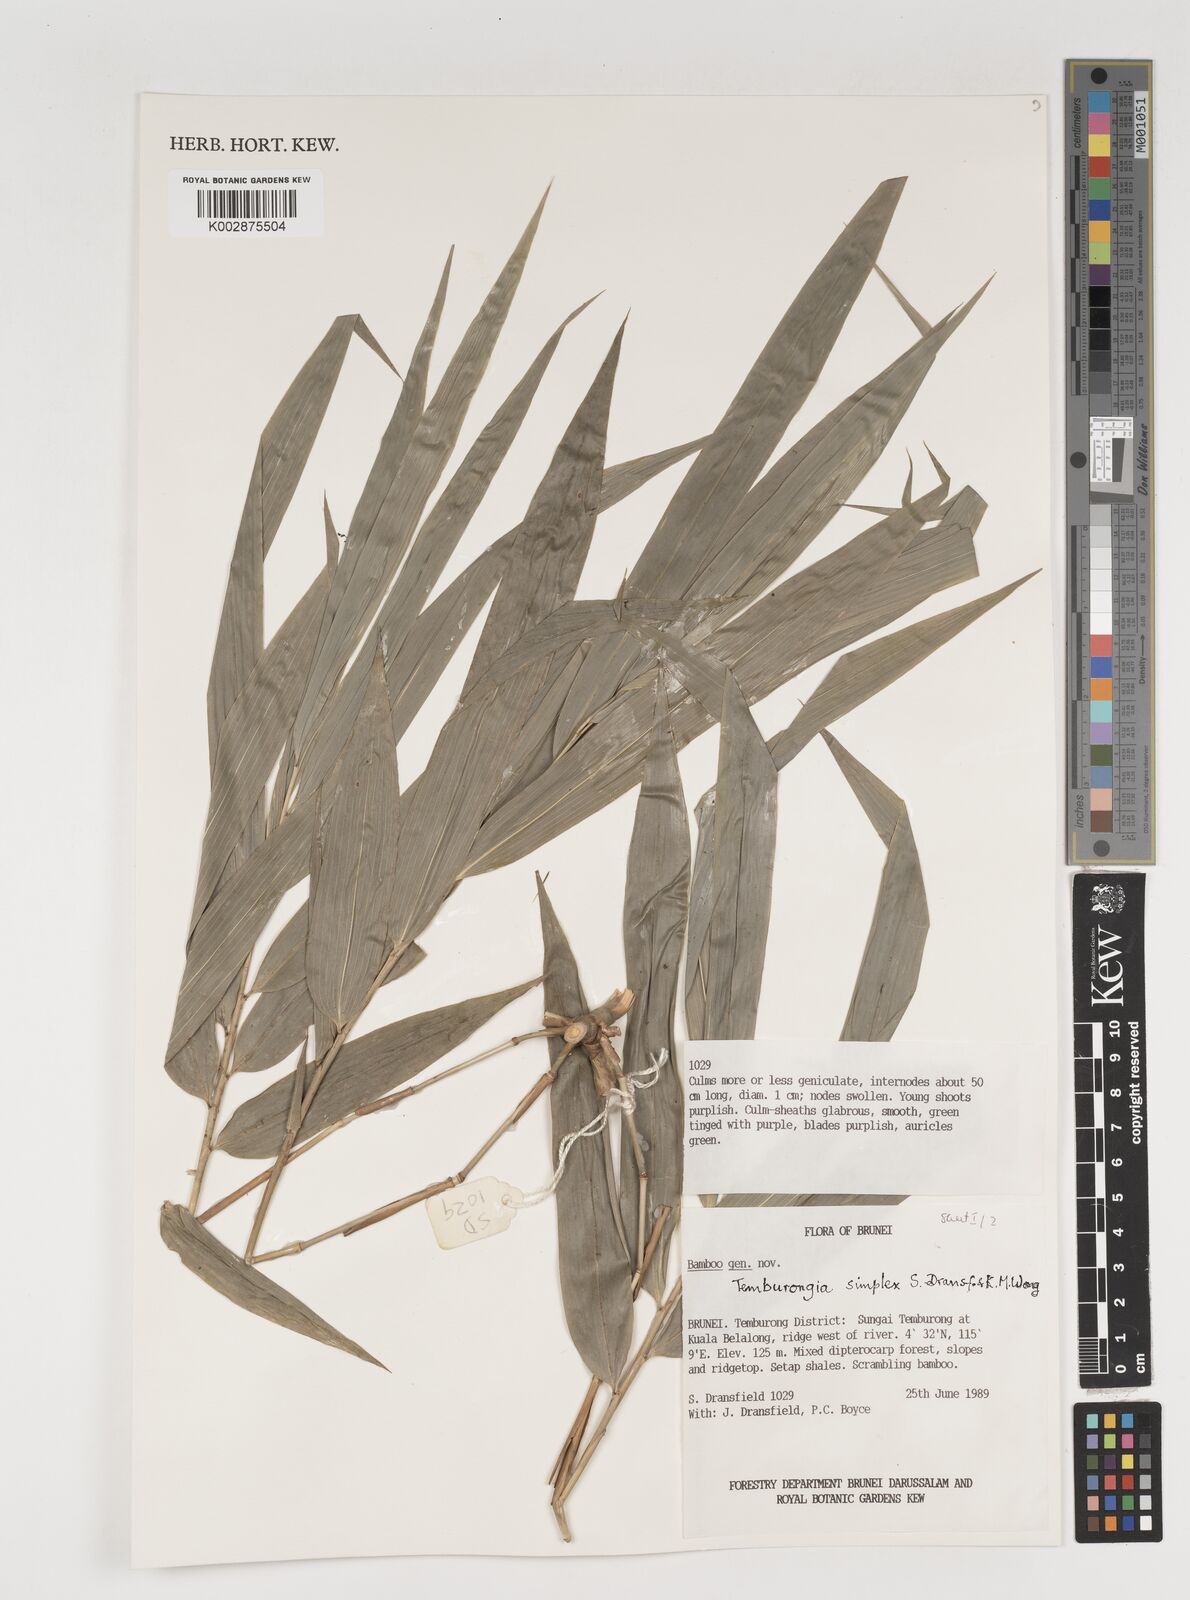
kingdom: Plantae
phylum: Tracheophyta
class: Liliopsida
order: Poales
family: Poaceae
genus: Temburongia
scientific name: Temburongia simplex
